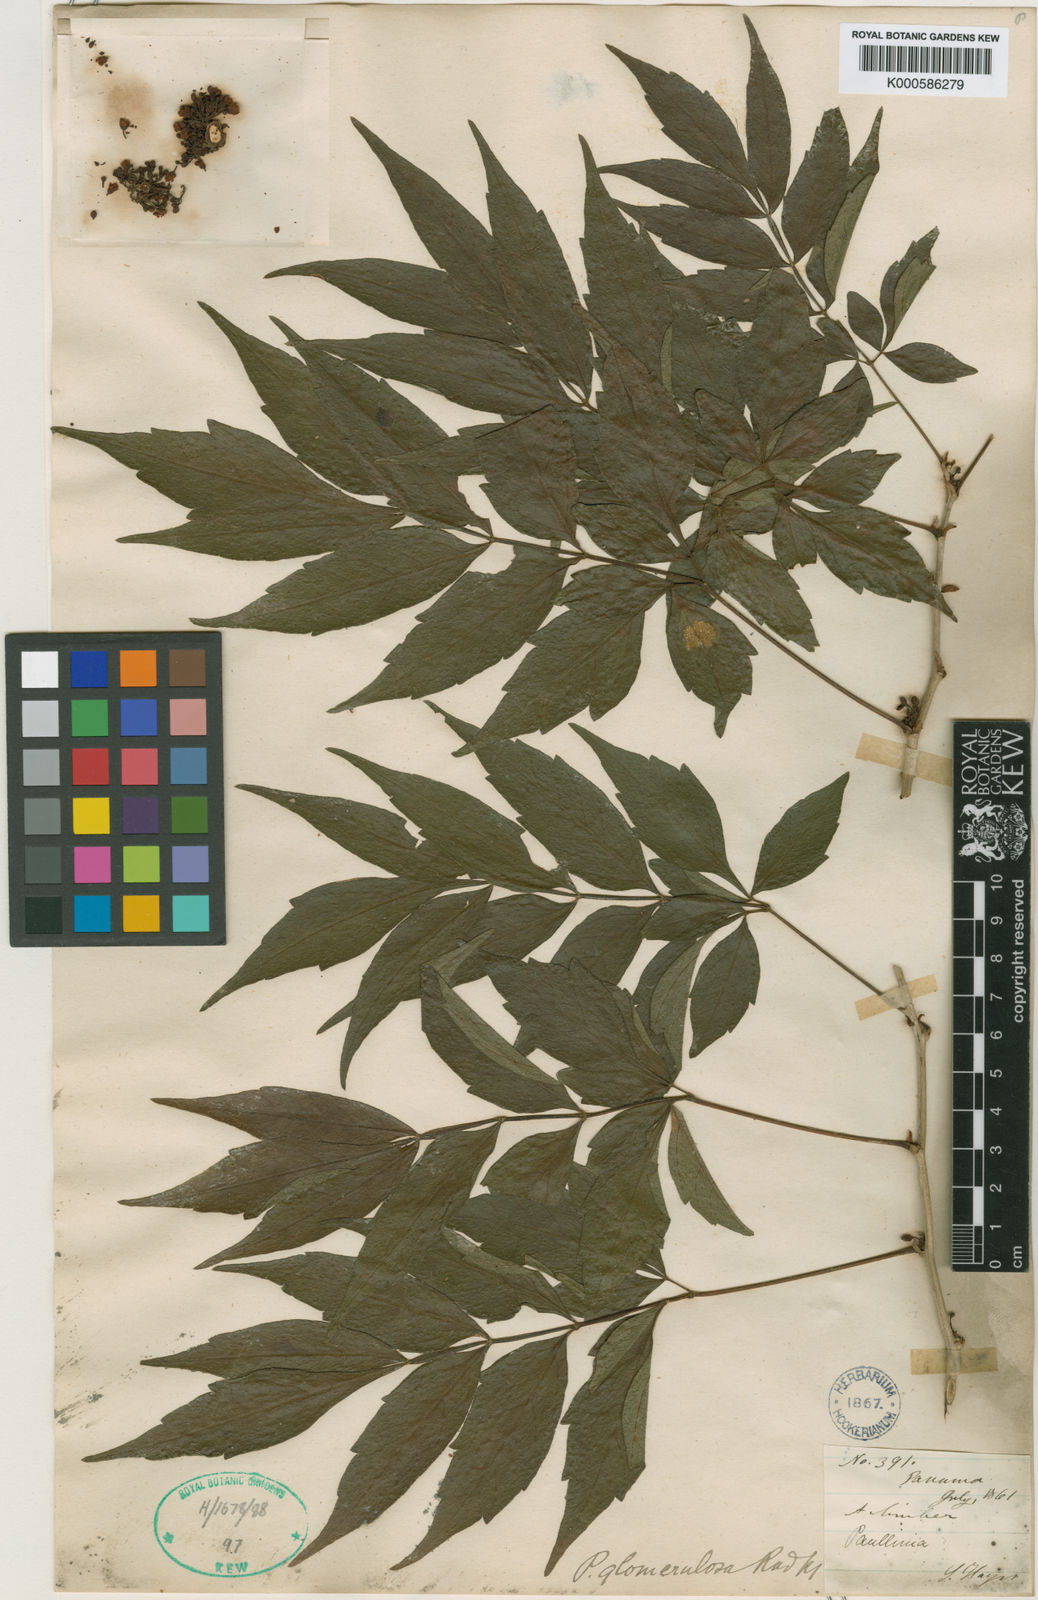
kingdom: Plantae
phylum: Tracheophyta
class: Magnoliopsida
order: Sapindales
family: Sapindaceae
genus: Paullinia
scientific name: Paullinia glomerulosa
